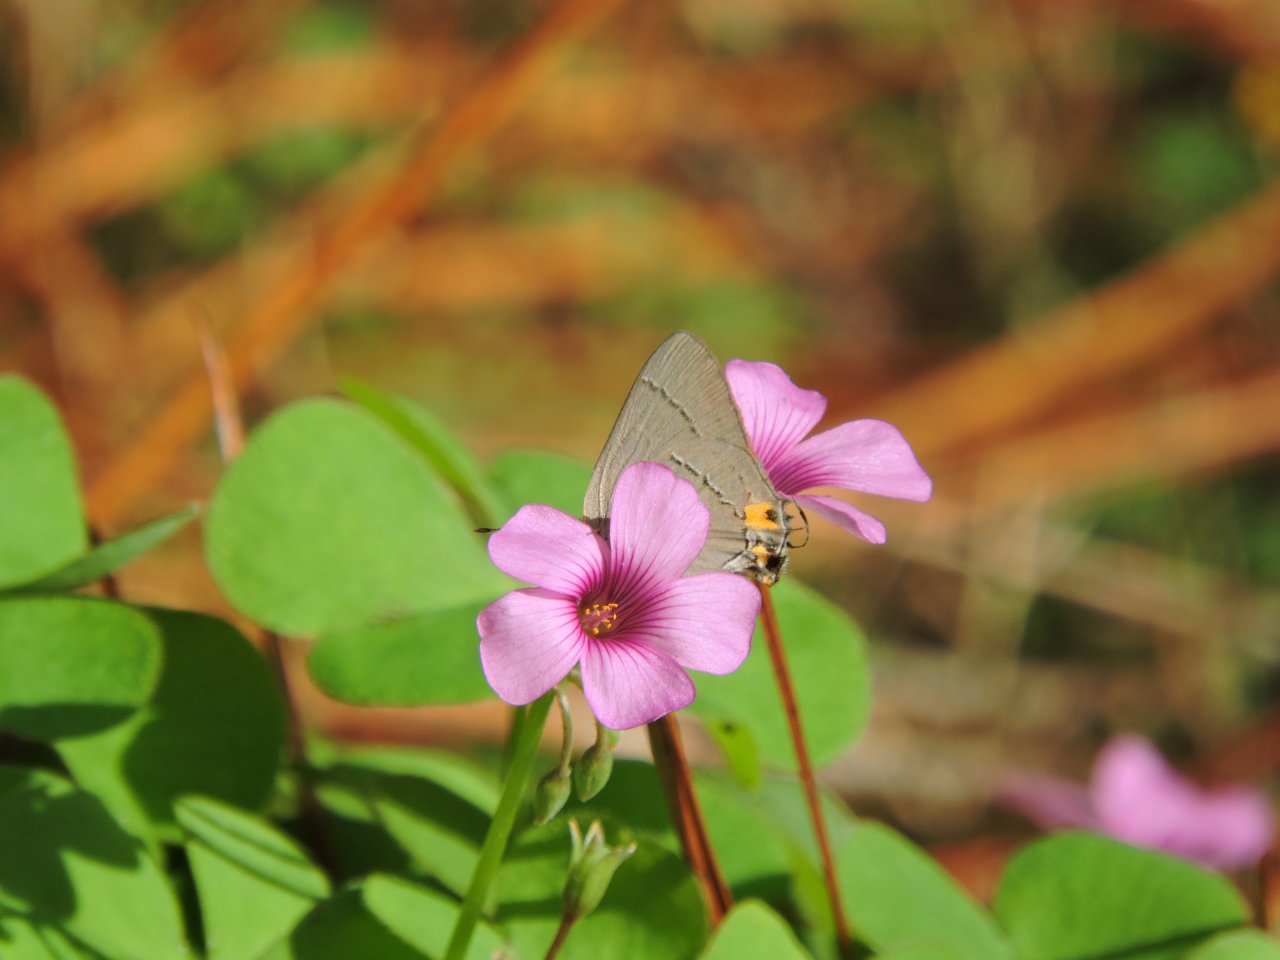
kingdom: Animalia
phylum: Arthropoda
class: Insecta
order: Lepidoptera
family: Lycaenidae
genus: Strymon
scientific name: Strymon melinus
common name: Gray Hairstreak
